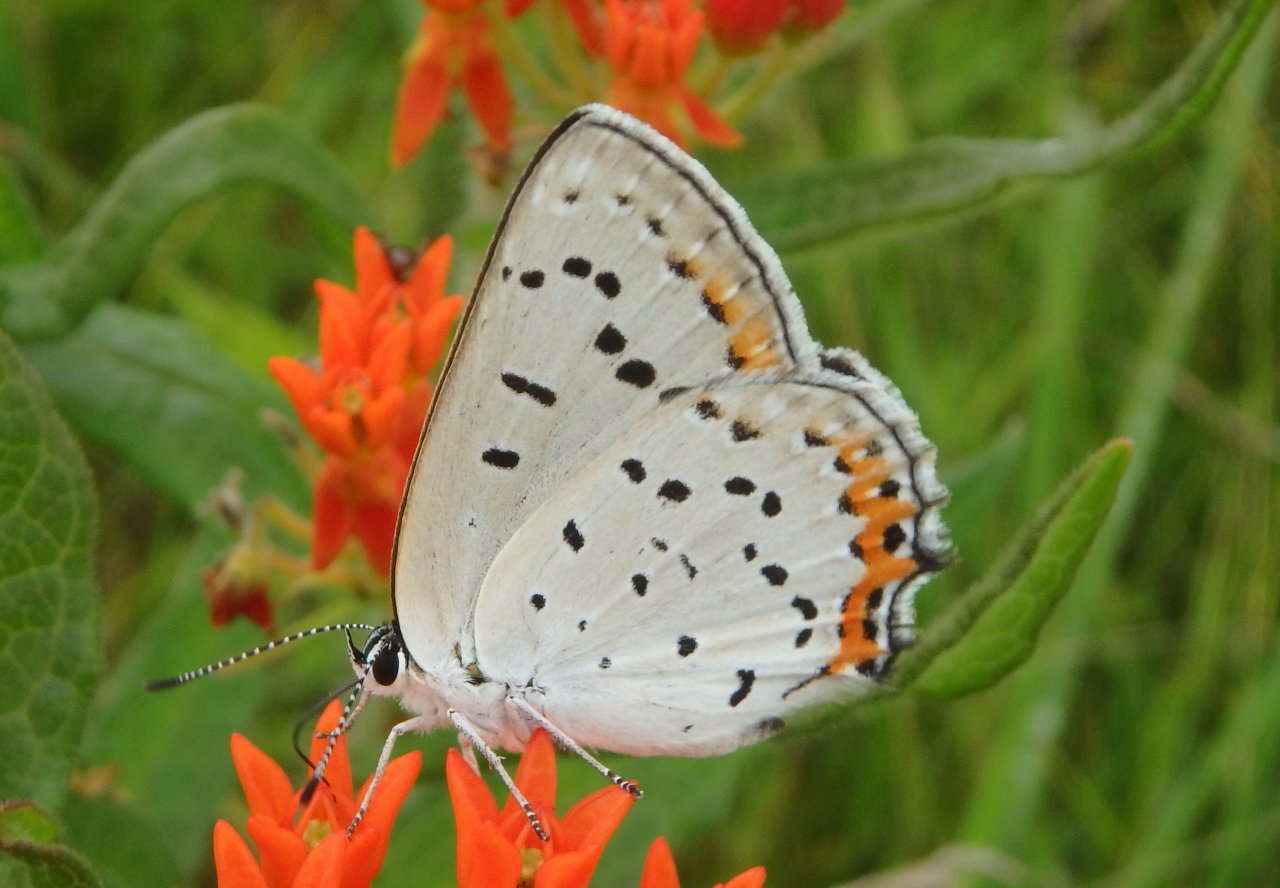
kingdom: Animalia
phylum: Arthropoda
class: Insecta
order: Lepidoptera
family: Lycaenidae
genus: Nacaduba
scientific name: Nacaduba dyopa
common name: Gray Copper
